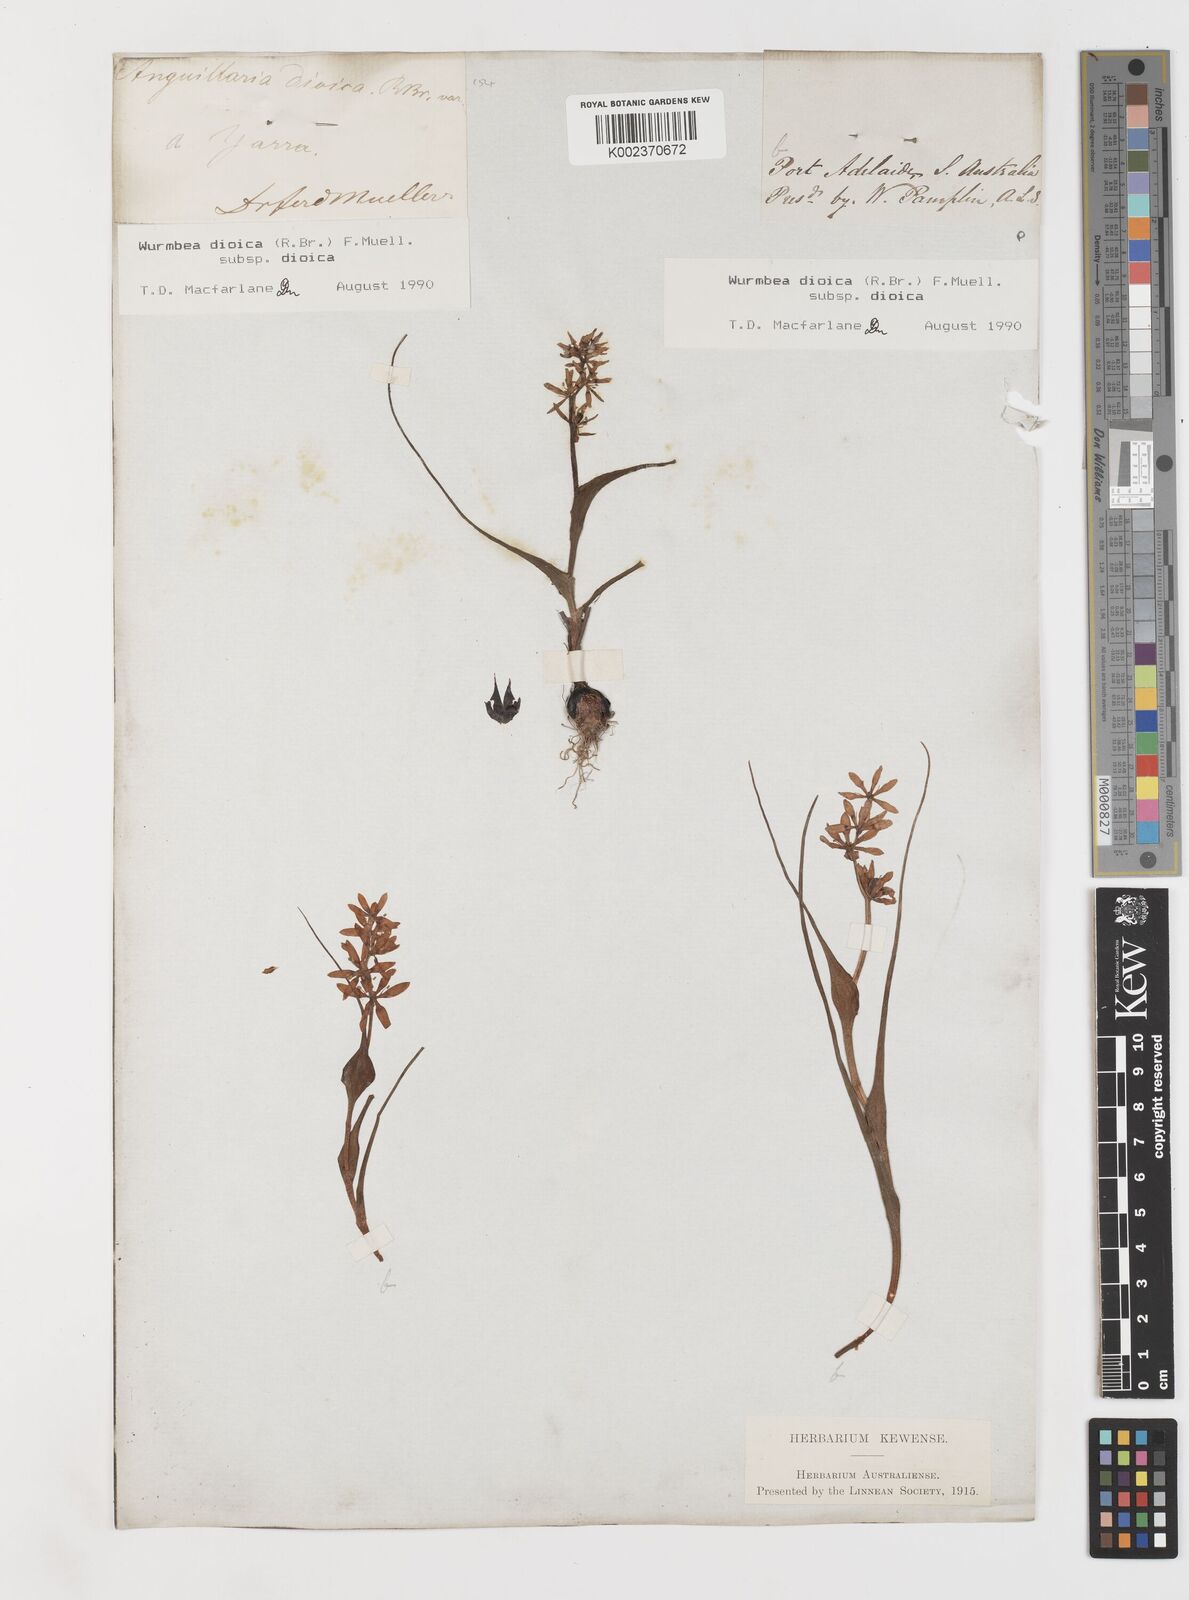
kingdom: Plantae
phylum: Tracheophyta
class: Liliopsida
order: Liliales
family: Colchicaceae
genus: Wurmbea
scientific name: Wurmbea dioica
